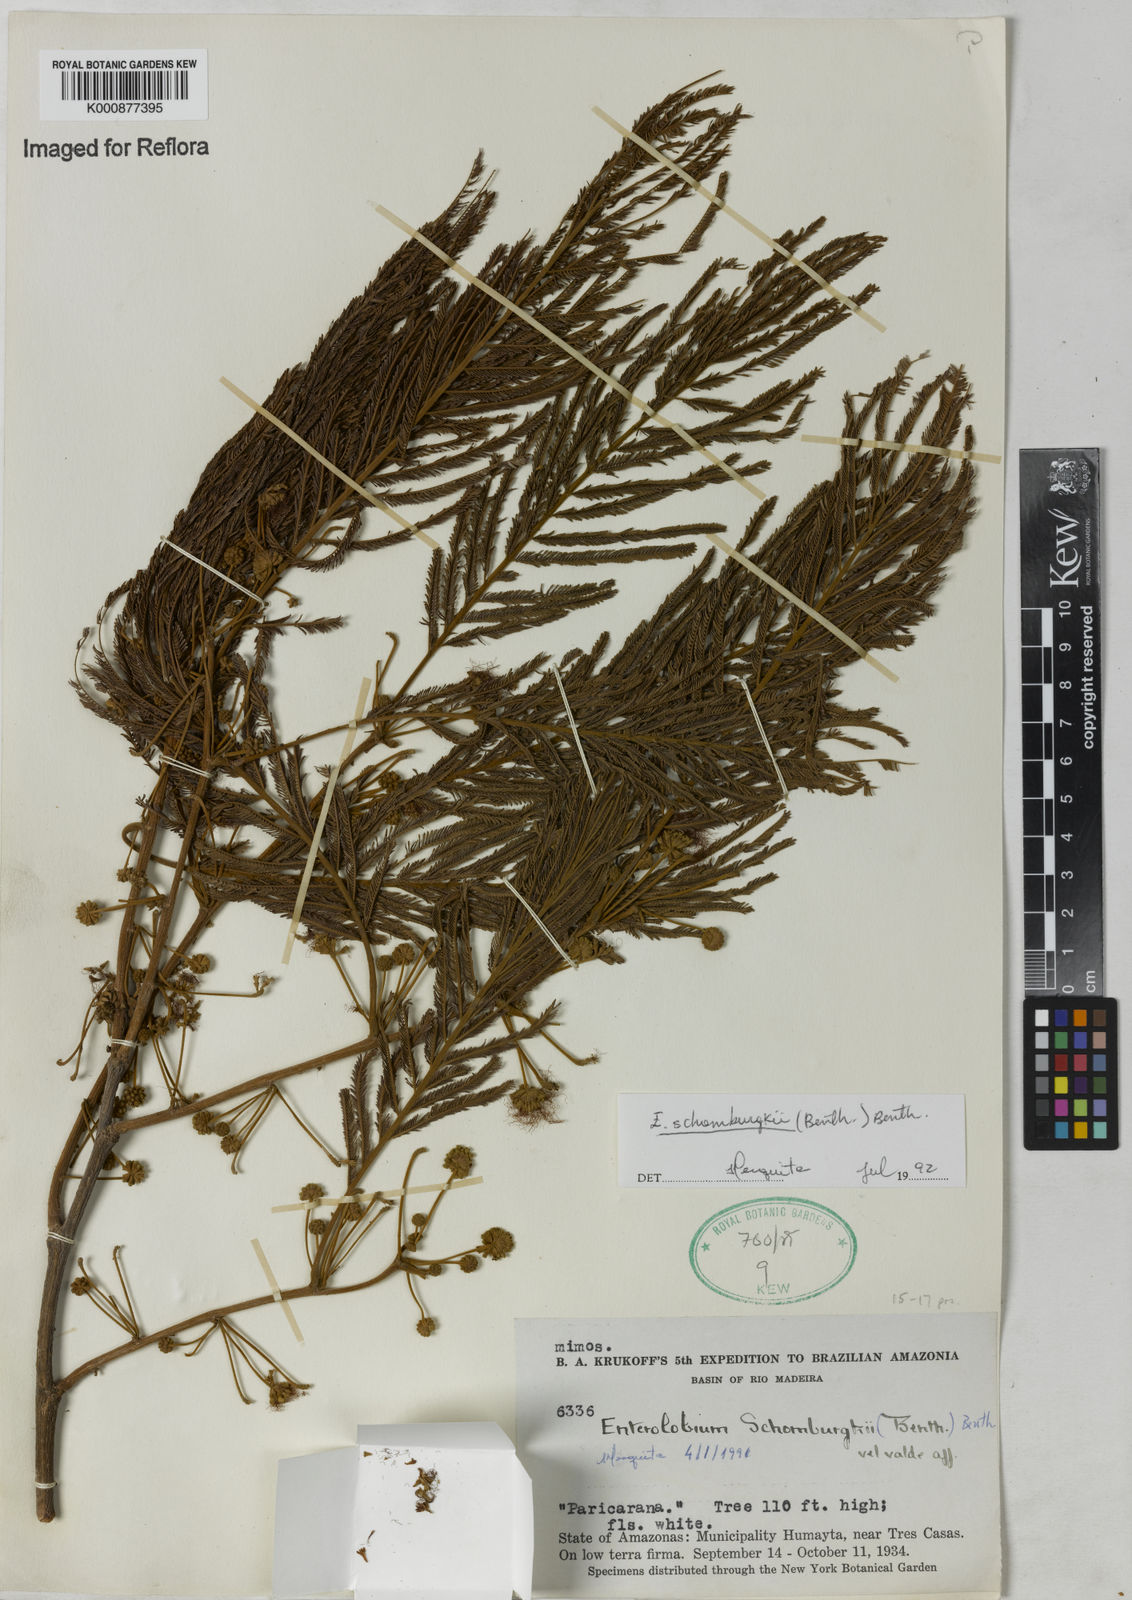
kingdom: Plantae
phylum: Tracheophyta
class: Magnoliopsida
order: Fabales
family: Fabaceae
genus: Enterolobium
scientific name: Enterolobium schomburgkii
